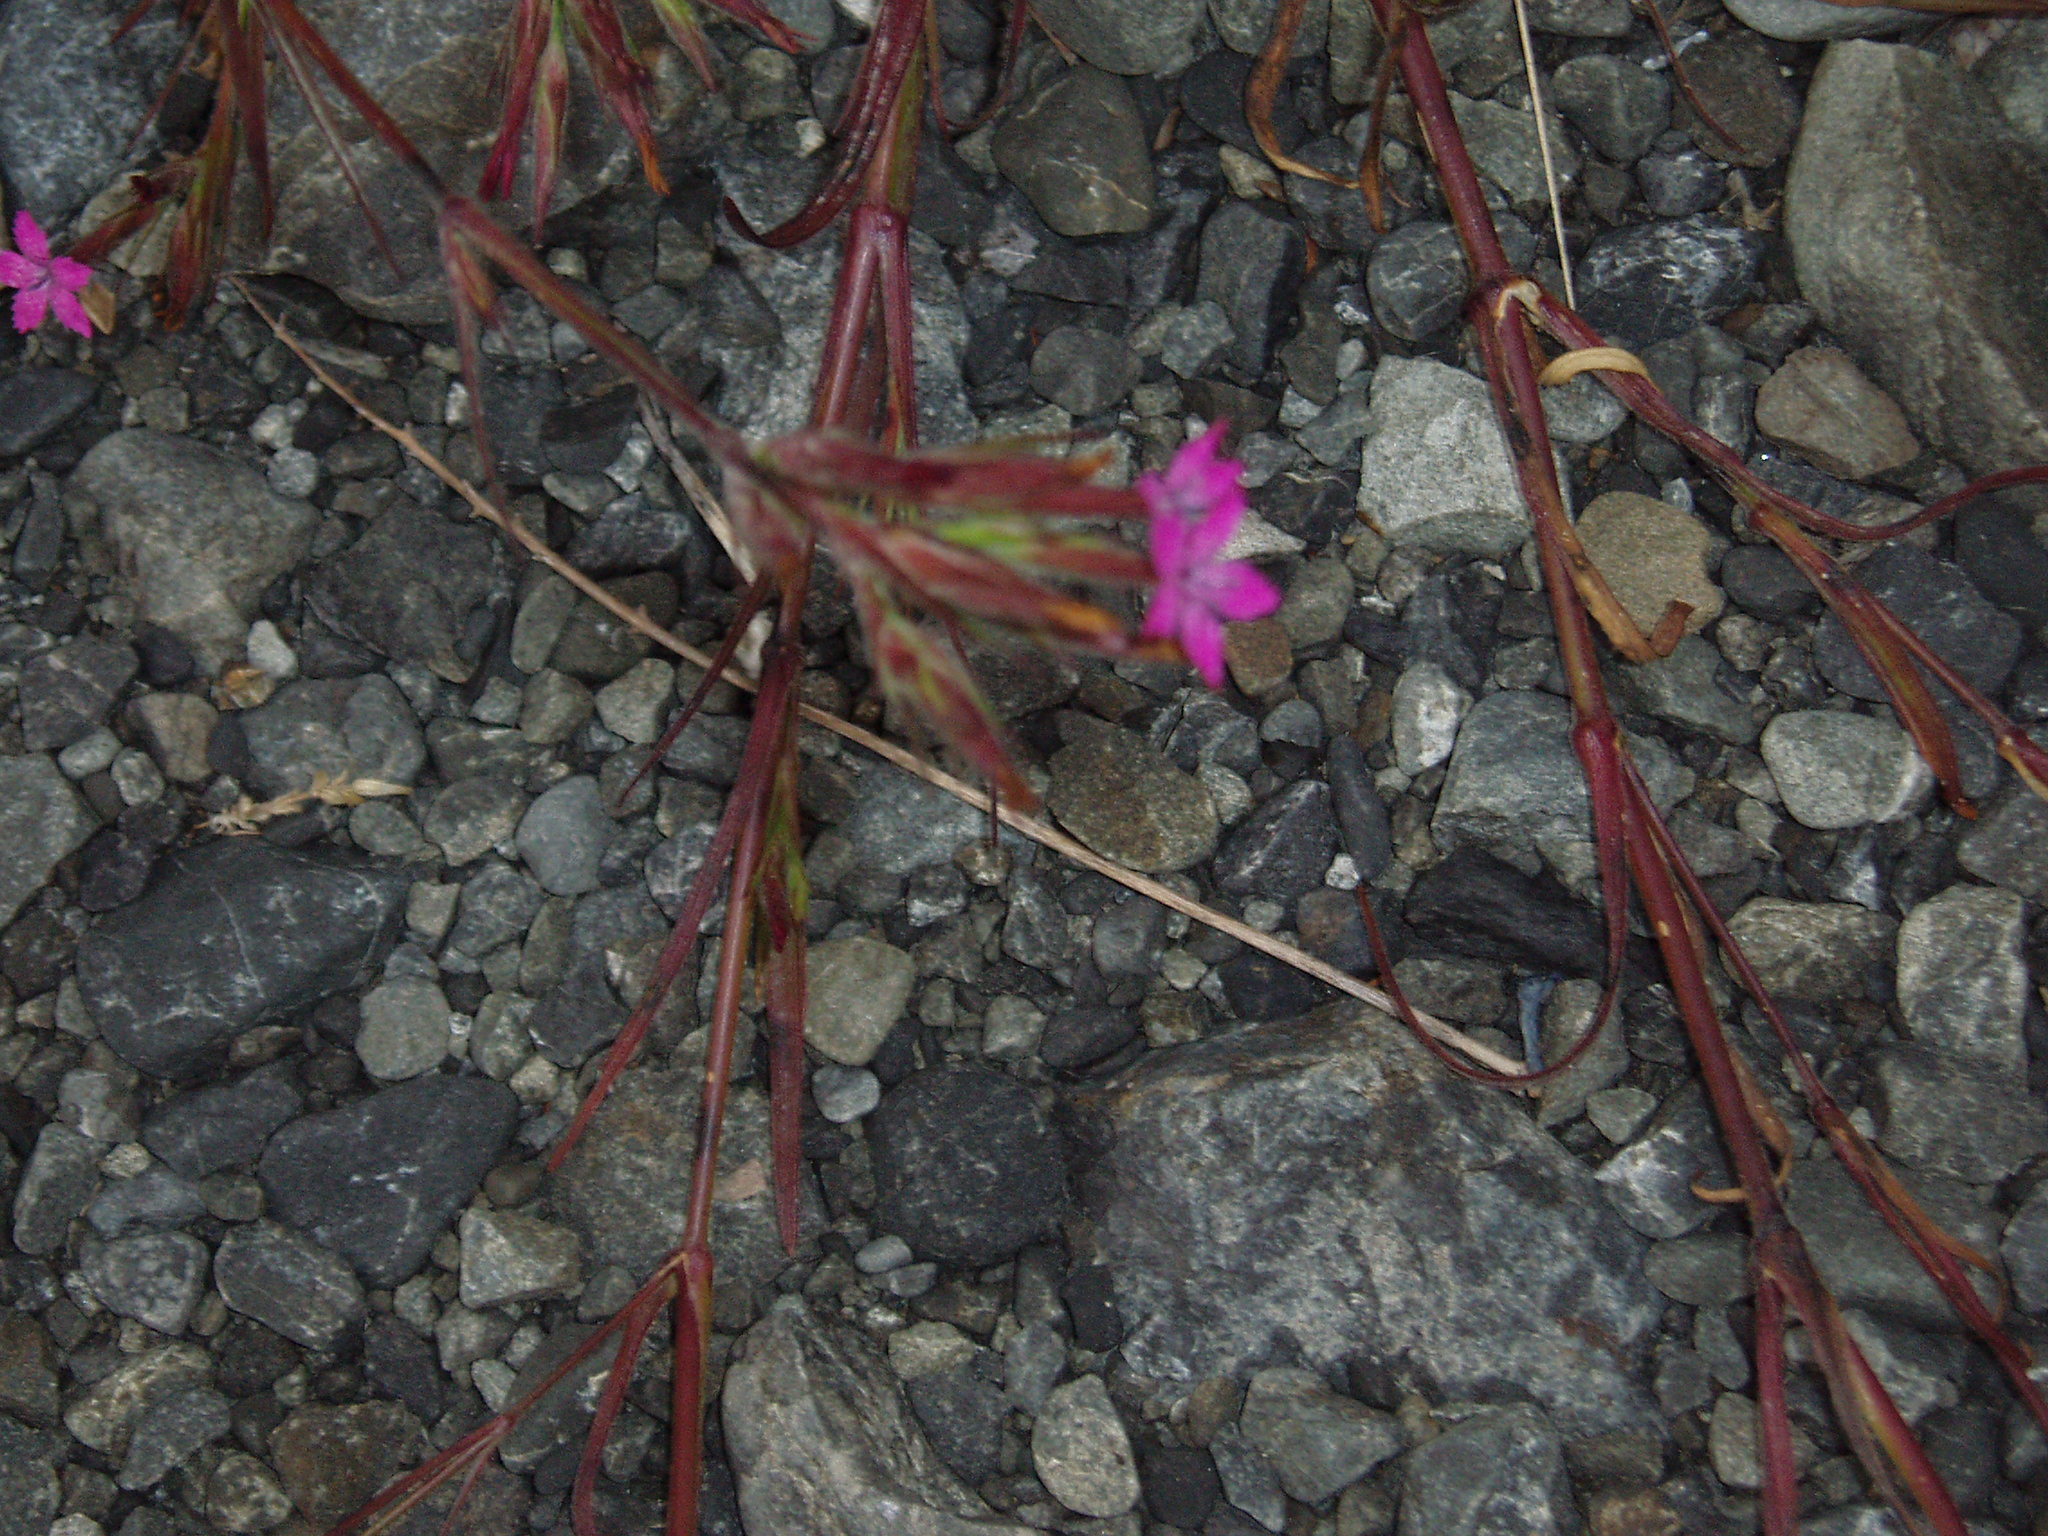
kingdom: Plantae
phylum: Tracheophyta
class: Magnoliopsida
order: Caryophyllales
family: Caryophyllaceae
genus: Dianthus
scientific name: Dianthus armeria
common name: Deptford pink
